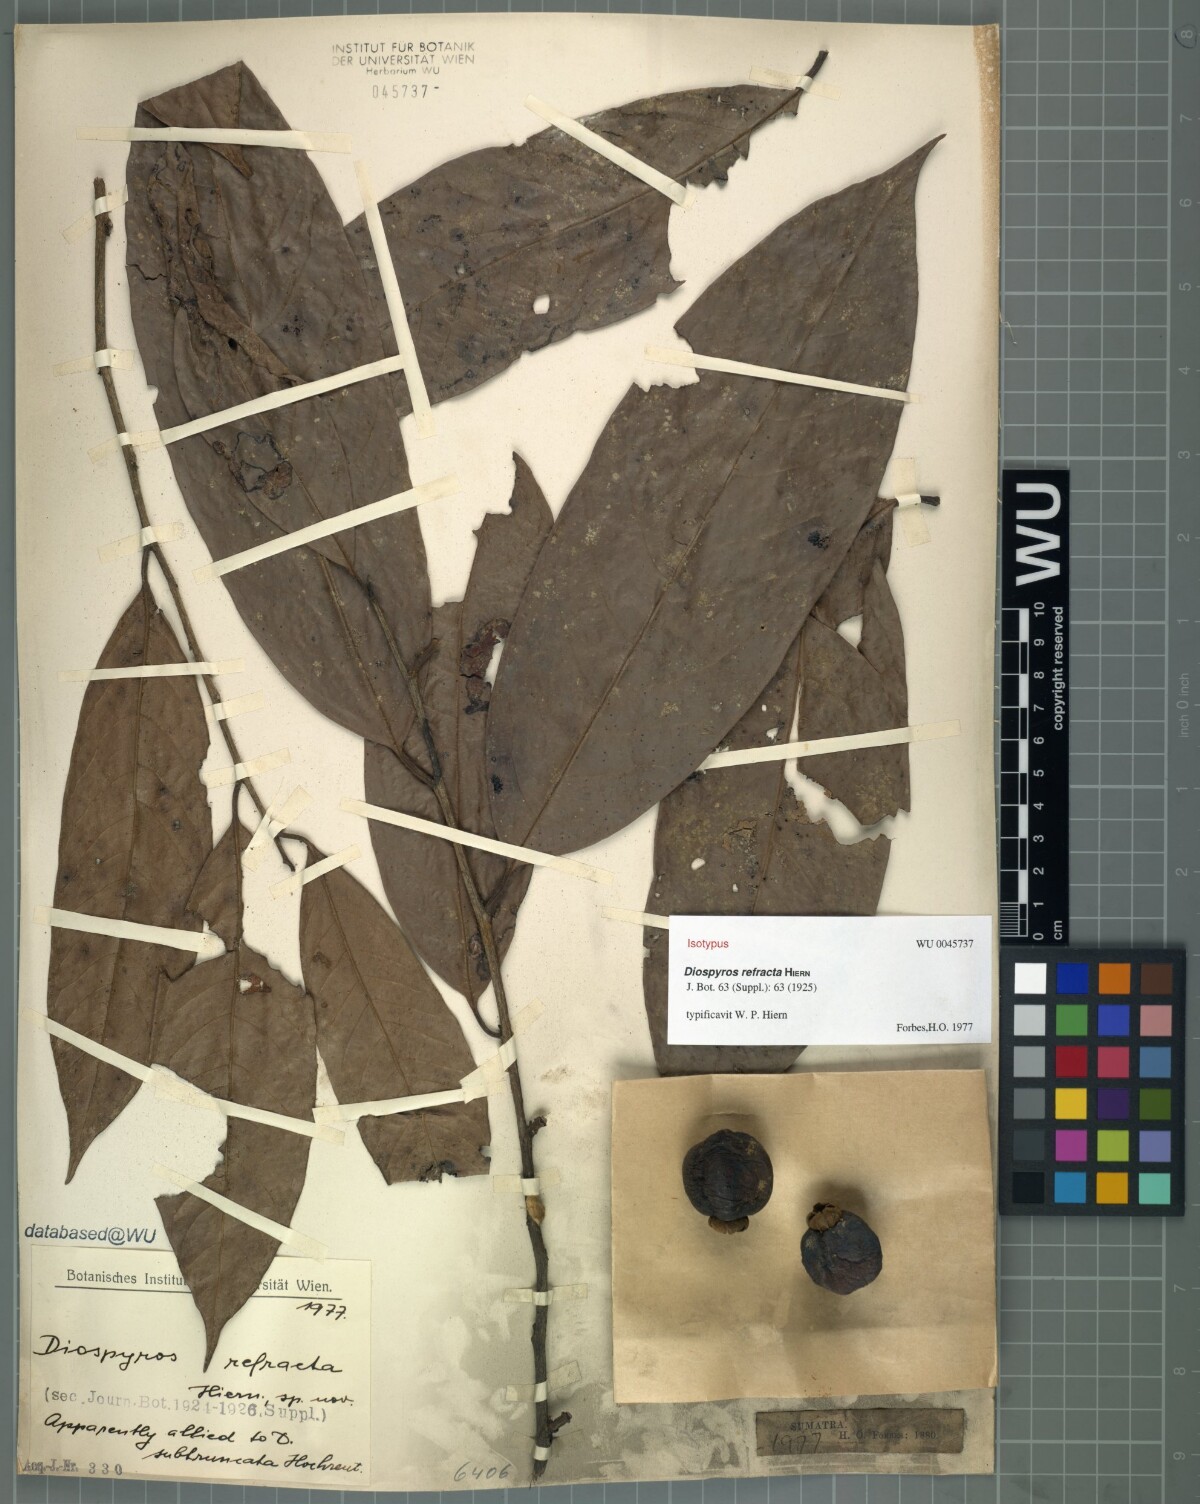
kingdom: Plantae
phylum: Tracheophyta
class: Magnoliopsida
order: Ericales
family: Ebenaceae
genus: Diospyros
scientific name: Diospyros cauliflora
